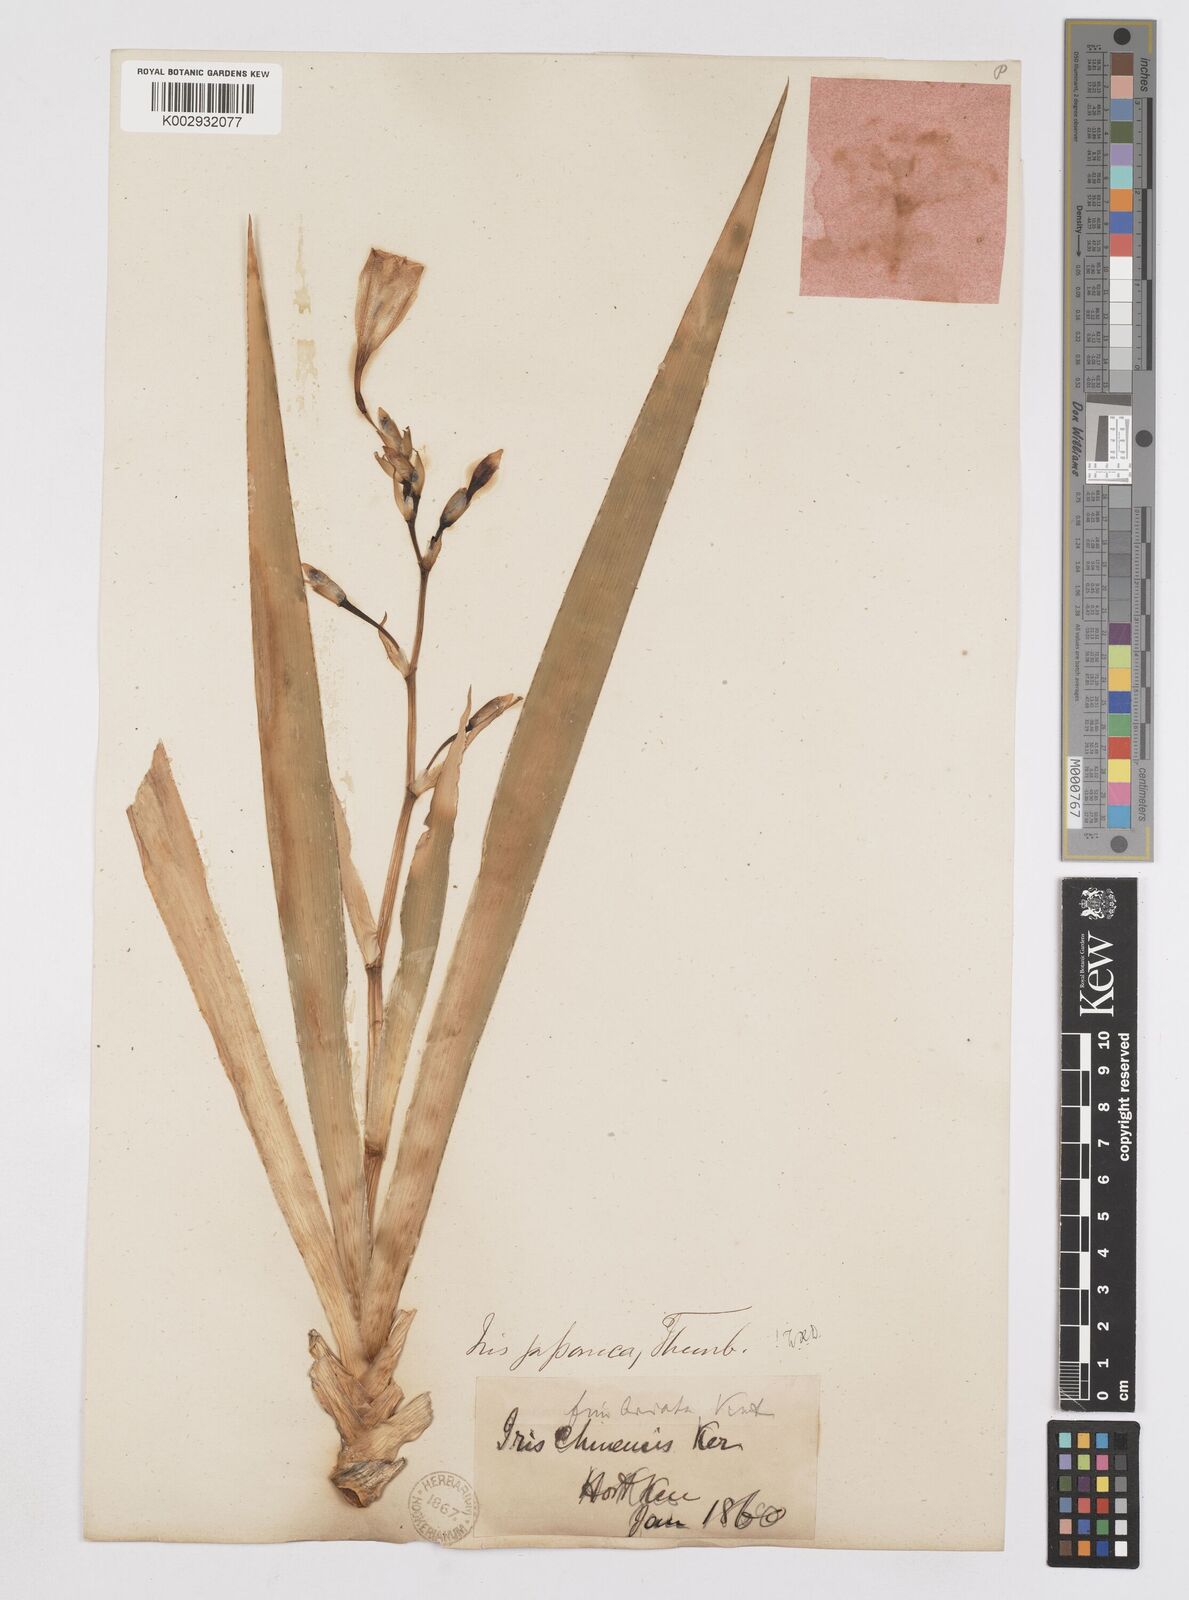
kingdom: Plantae
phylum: Tracheophyta
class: Liliopsida
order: Asparagales
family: Iridaceae
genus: Iris
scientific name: Iris japonica
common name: Butterfly-flower
